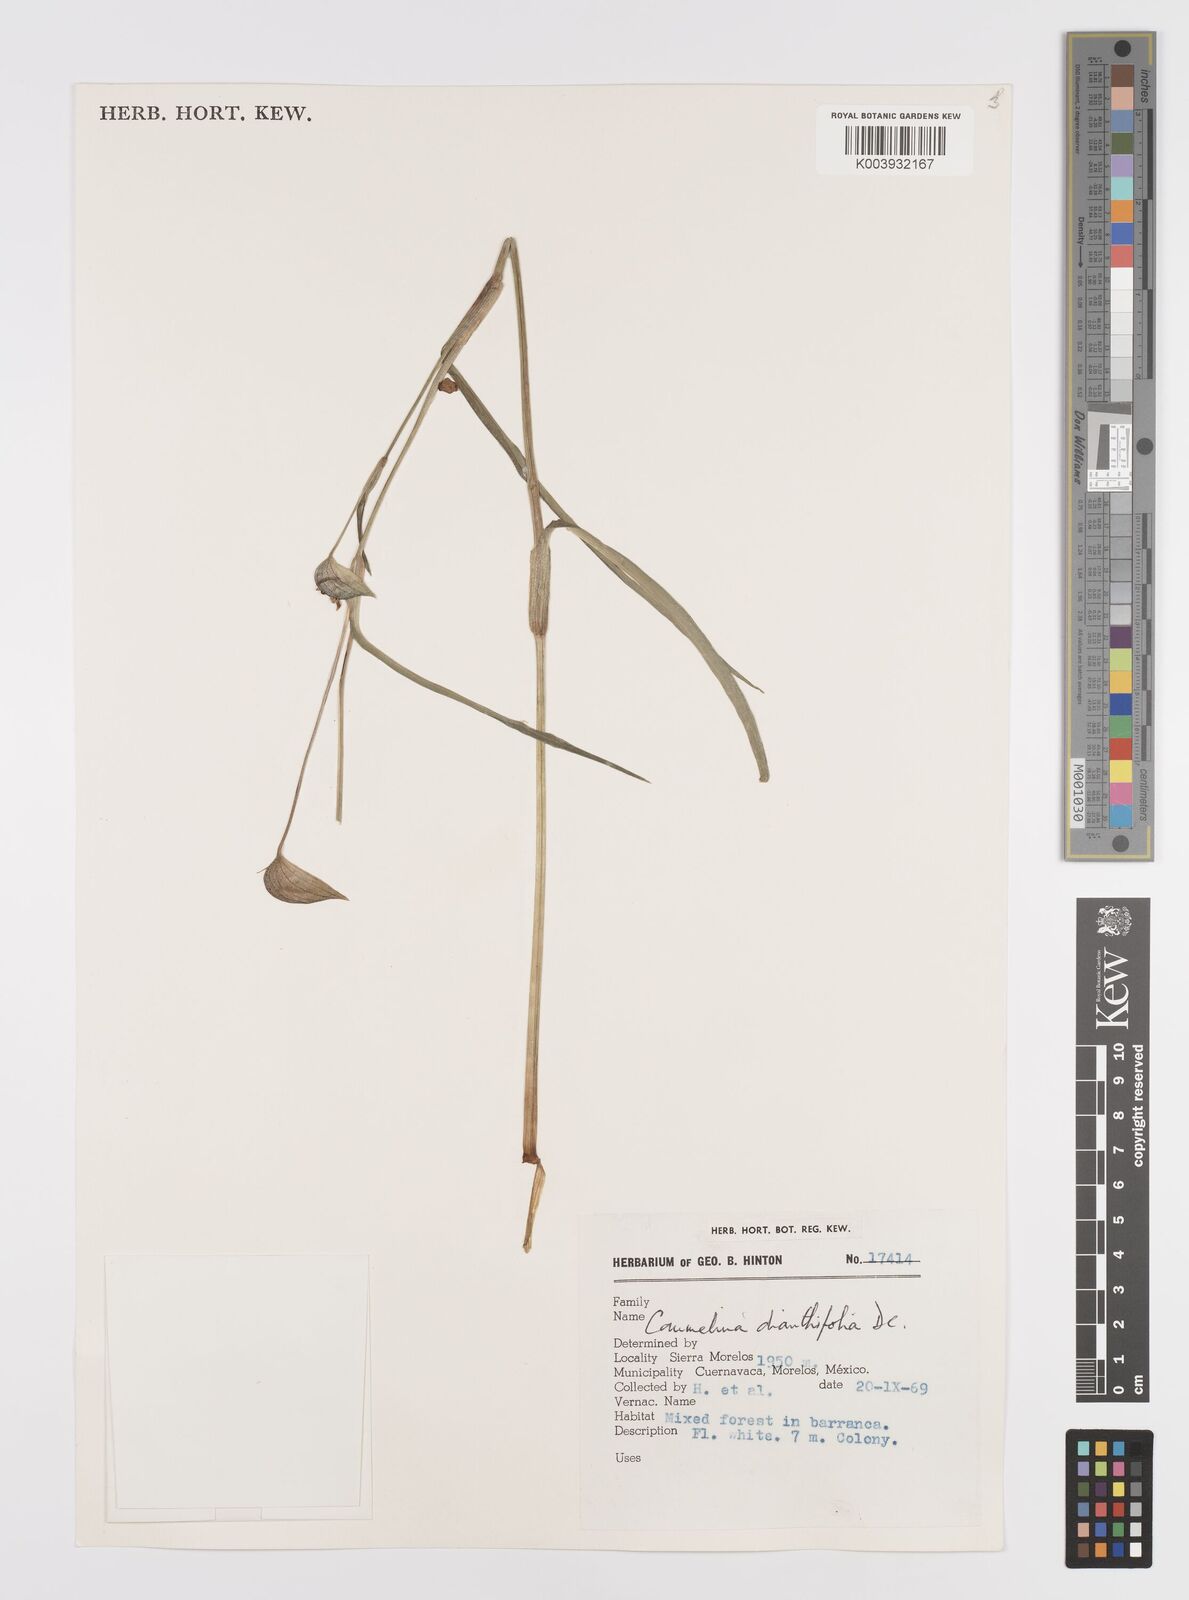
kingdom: Plantae
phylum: Tracheophyta
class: Liliopsida
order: Commelinales
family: Commelinaceae
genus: Commelina
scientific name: Commelina dianthifolia
